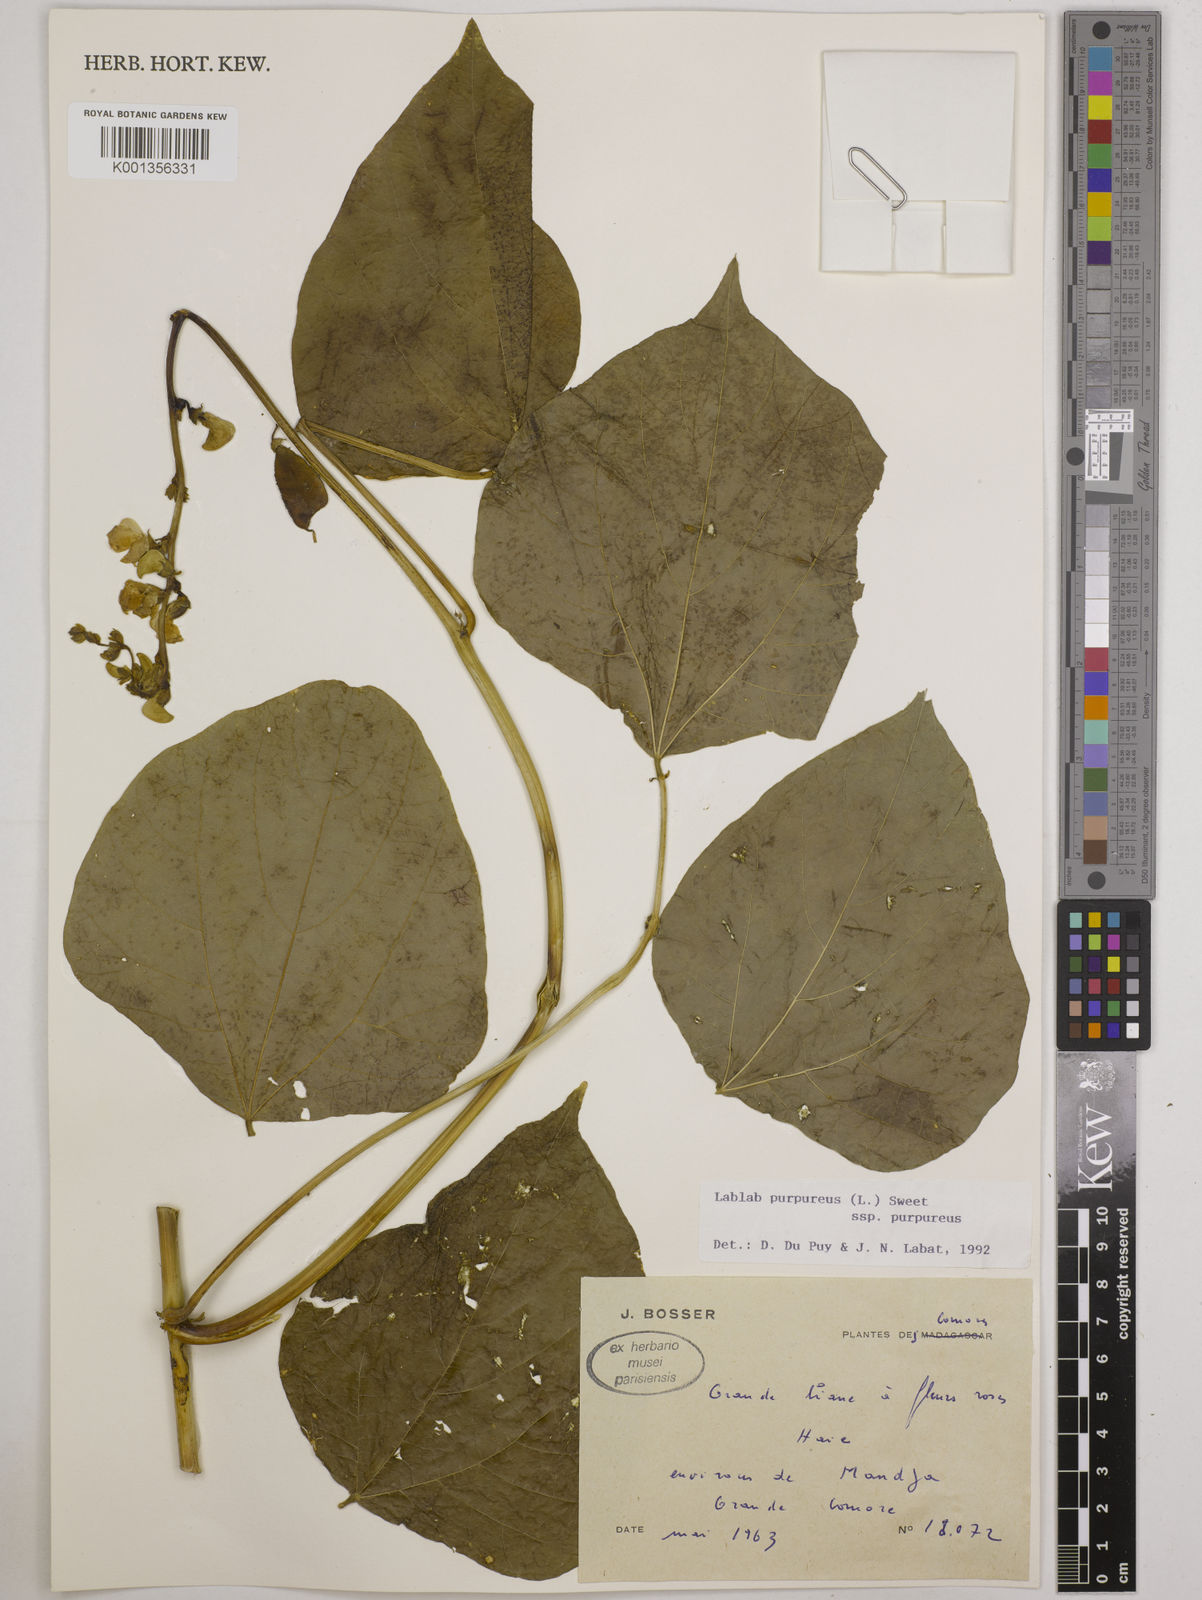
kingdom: Plantae
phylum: Tracheophyta
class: Magnoliopsida
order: Fabales
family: Fabaceae
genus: Lablab
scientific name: Lablab purpureus
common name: Lablab-bean
